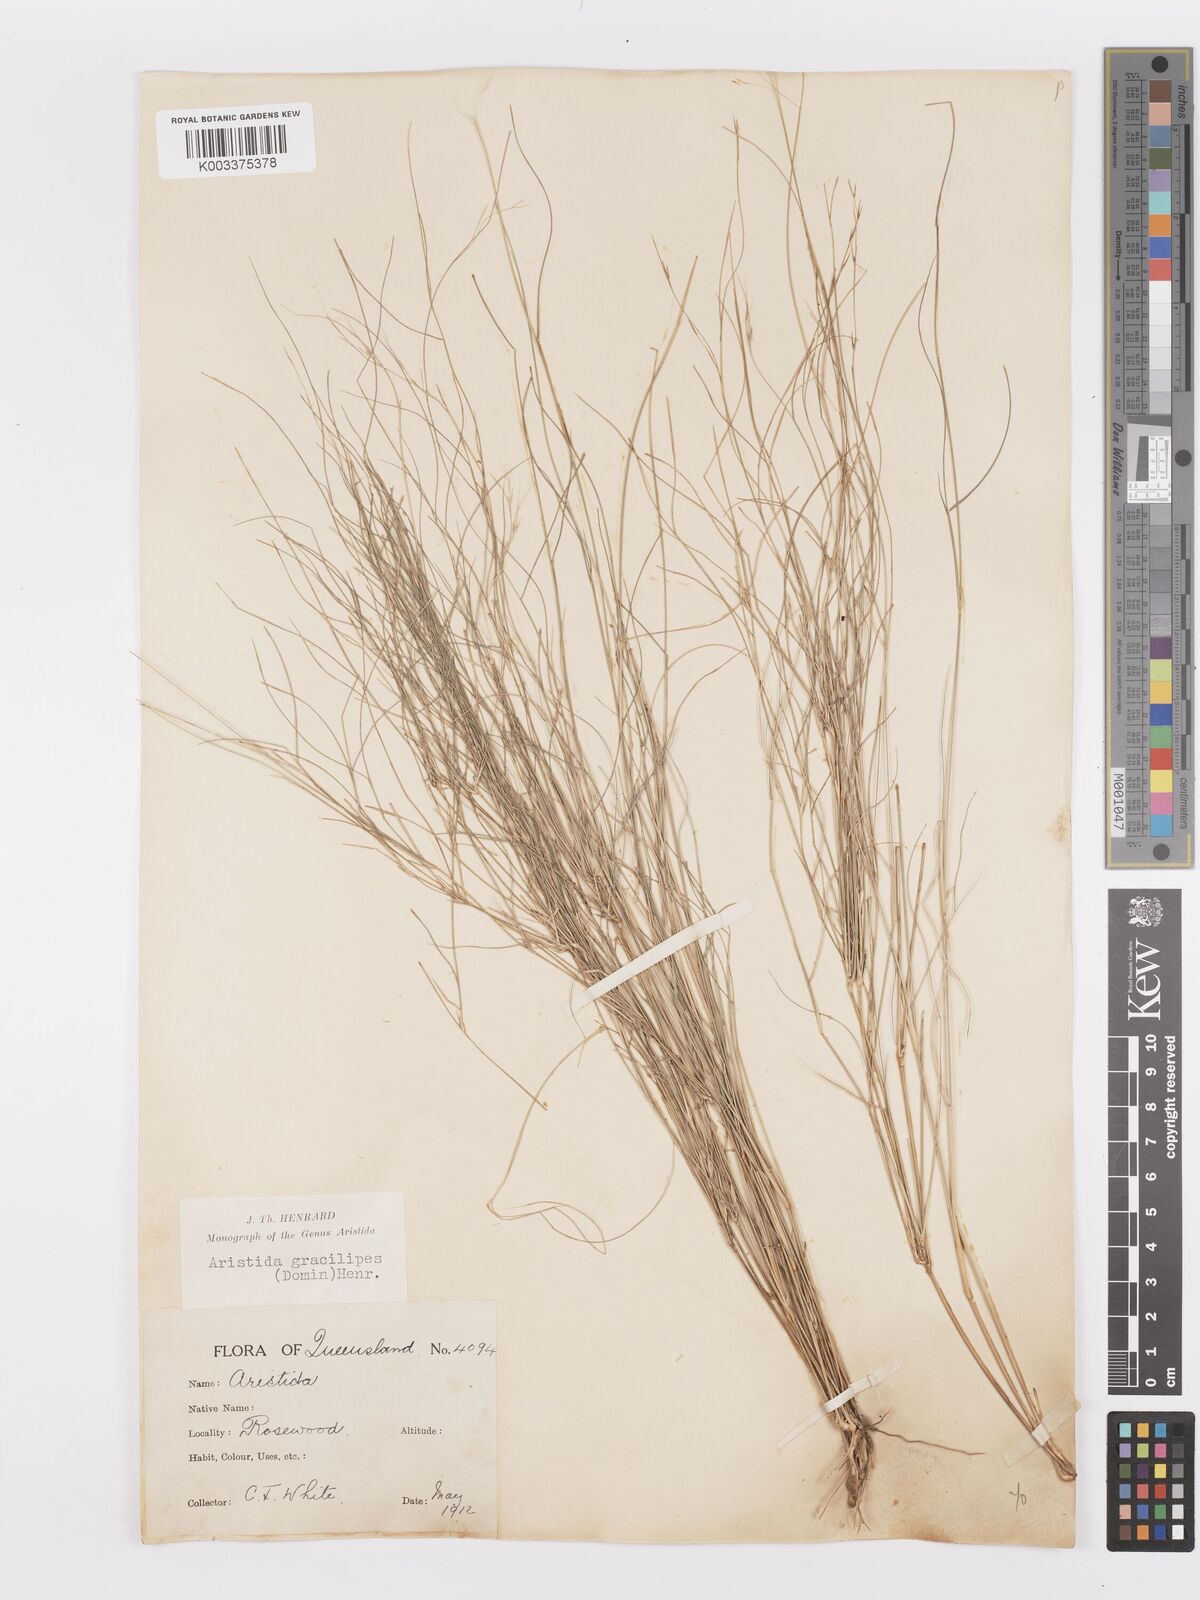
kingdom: Plantae
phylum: Tracheophyta
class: Liliopsida
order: Poales
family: Poaceae
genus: Aristida
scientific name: Aristida gracilipes
